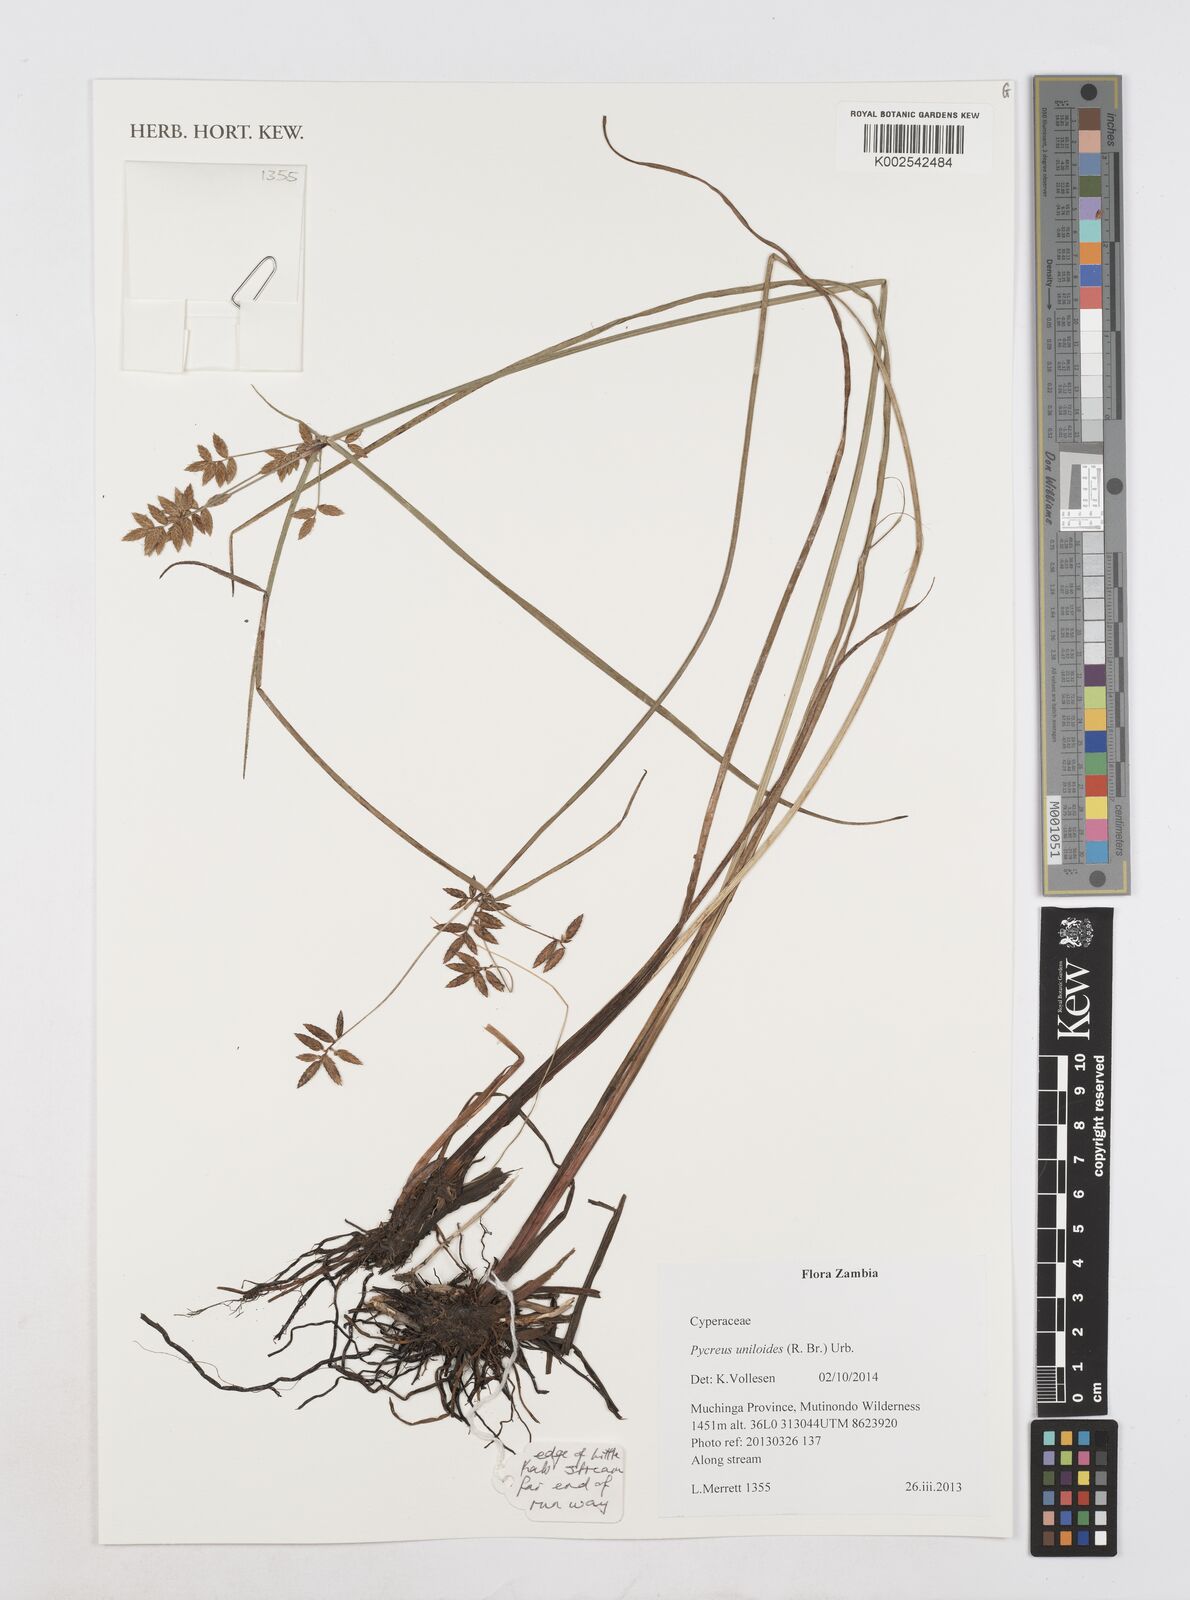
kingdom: Plantae
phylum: Tracheophyta
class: Liliopsida
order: Poales
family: Cyperaceae
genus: Cyperus
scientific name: Cyperus unioloides
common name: Uniola flatsedge
